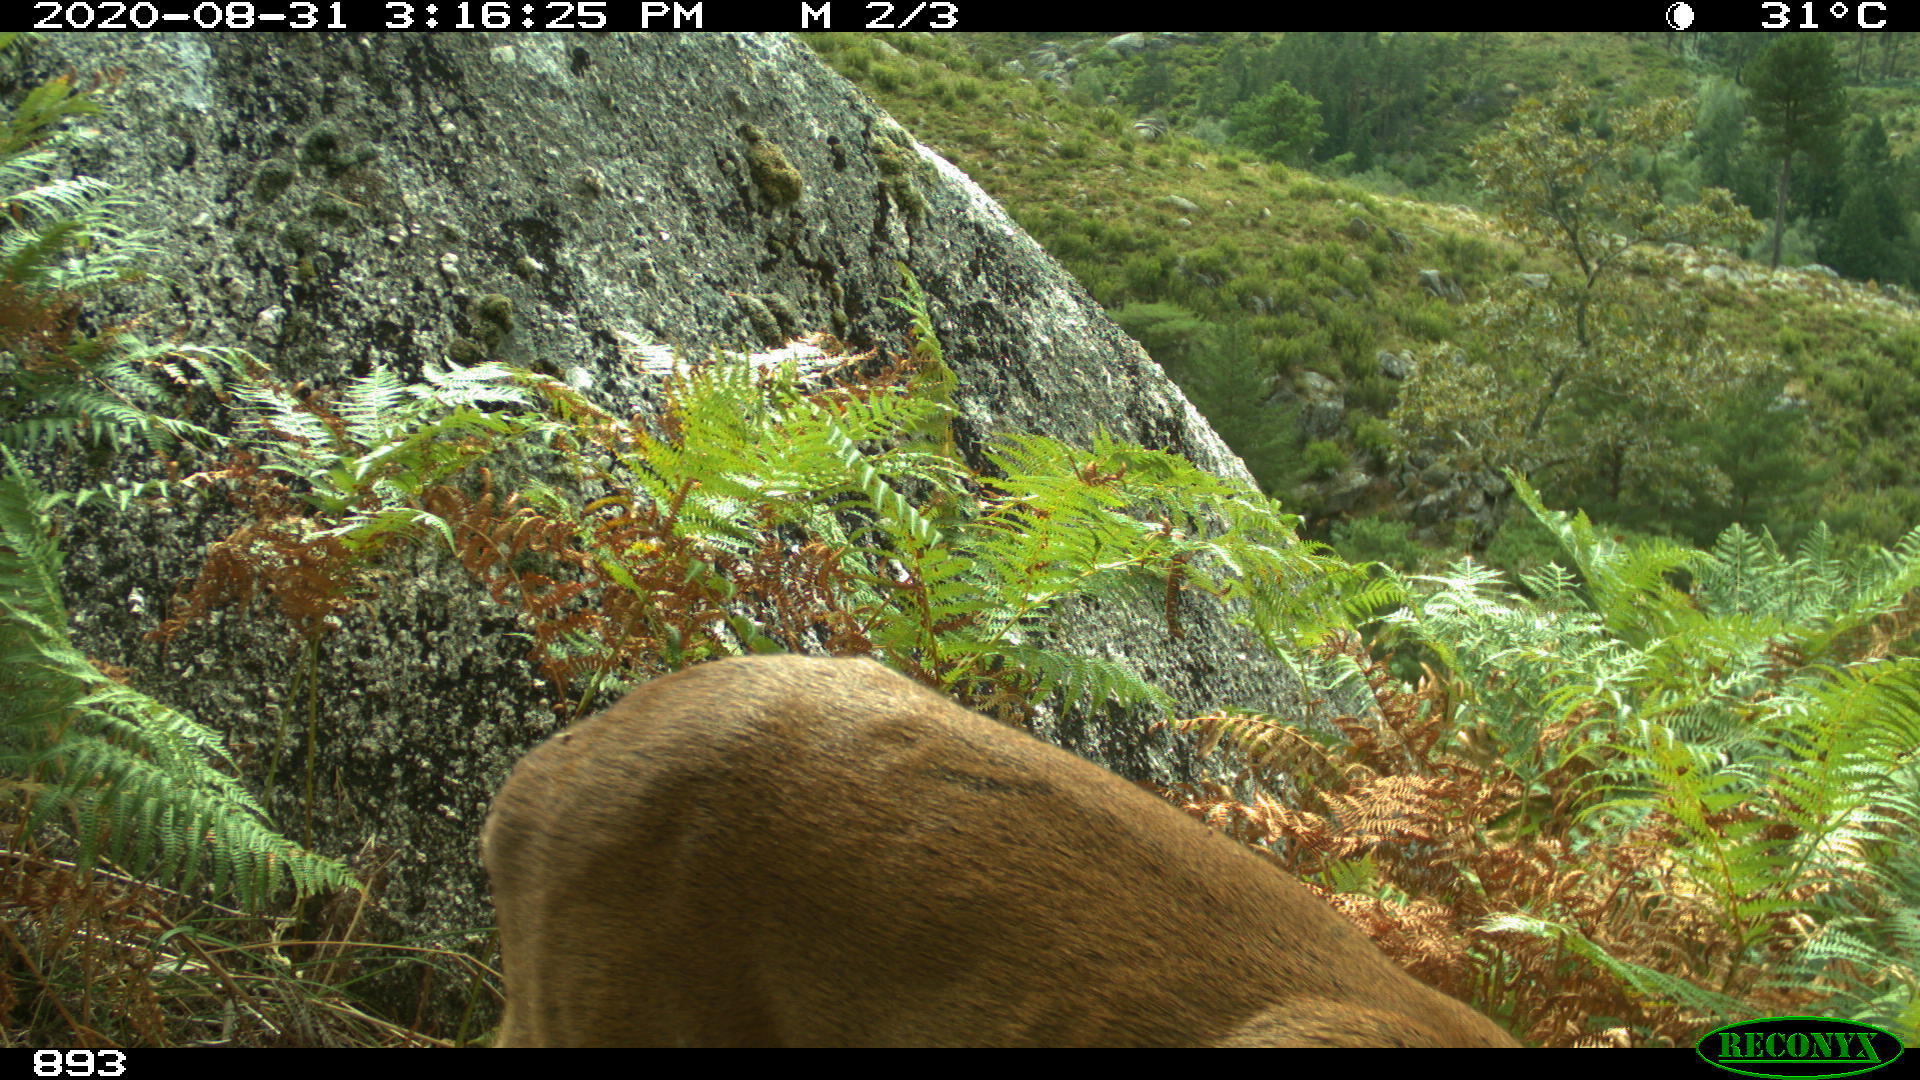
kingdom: Animalia
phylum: Chordata
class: Mammalia
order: Artiodactyla
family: Cervidae
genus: Capreolus
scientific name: Capreolus capreolus
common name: Western roe deer
